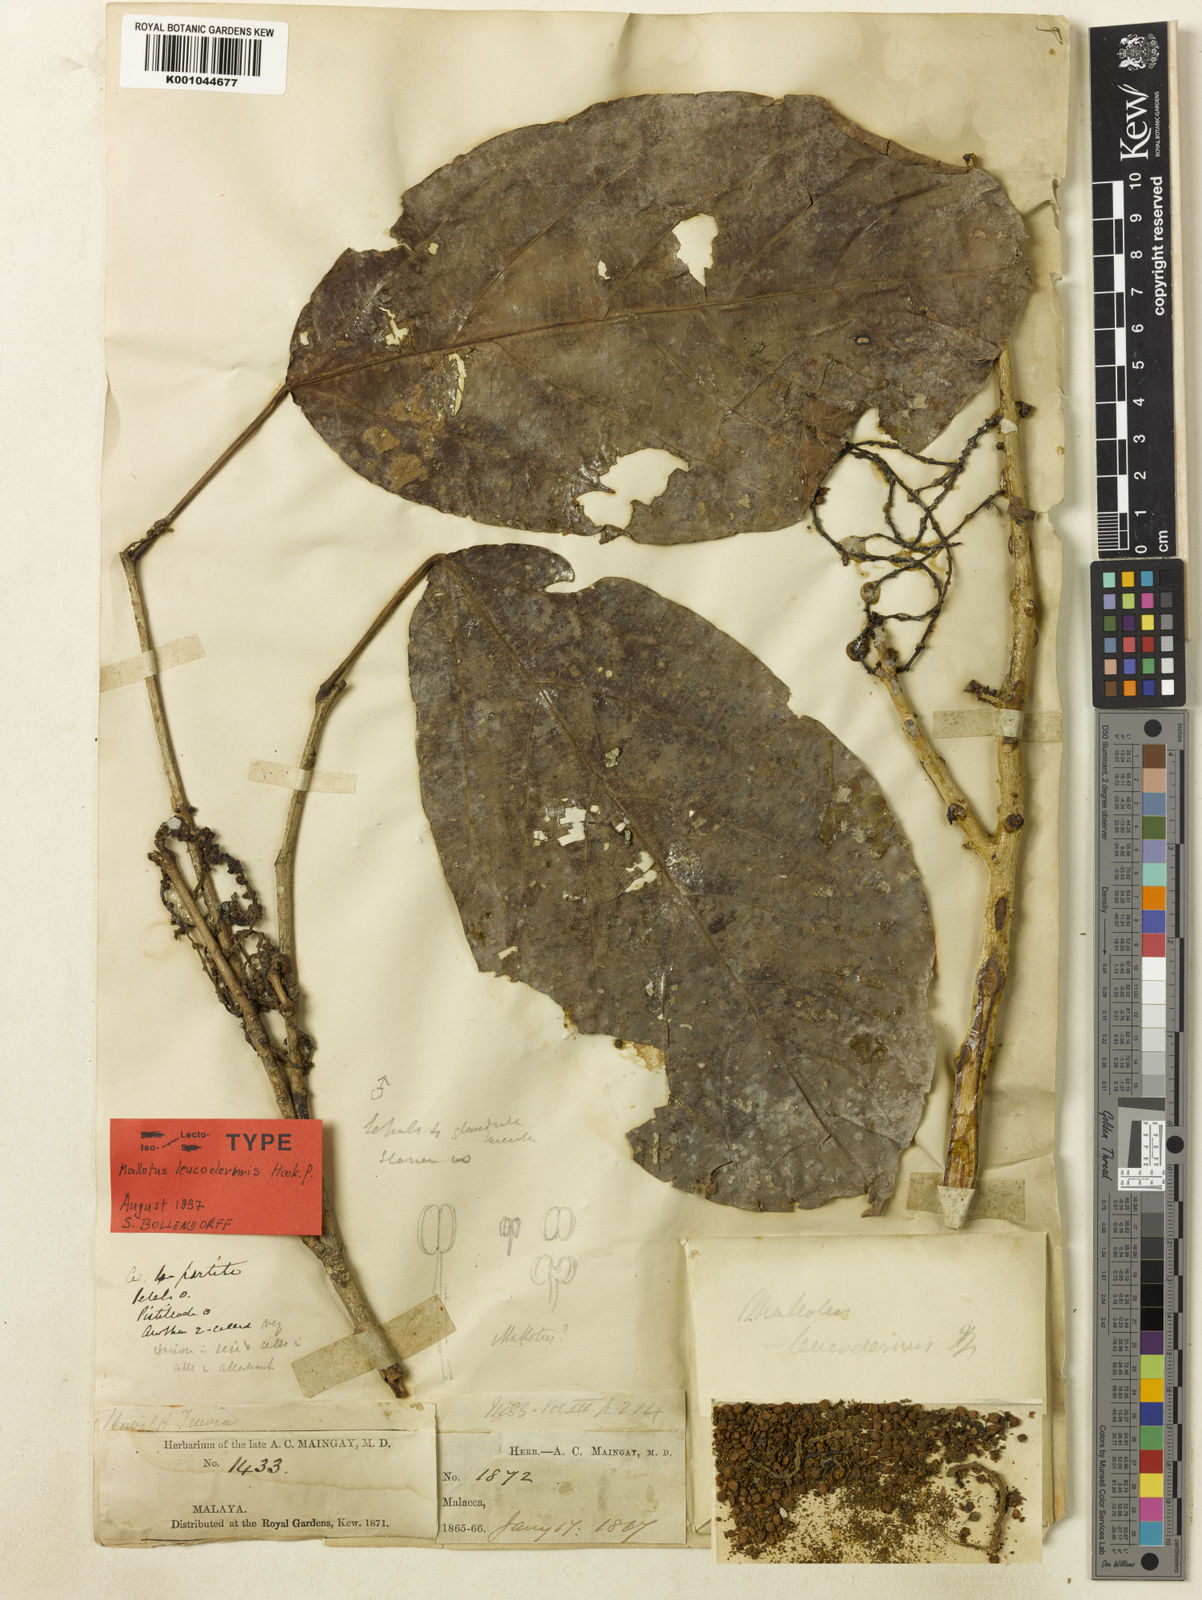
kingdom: Plantae
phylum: Tracheophyta
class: Magnoliopsida
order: Malpighiales
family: Euphorbiaceae
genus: Mallotus
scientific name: Mallotus leucodermis
